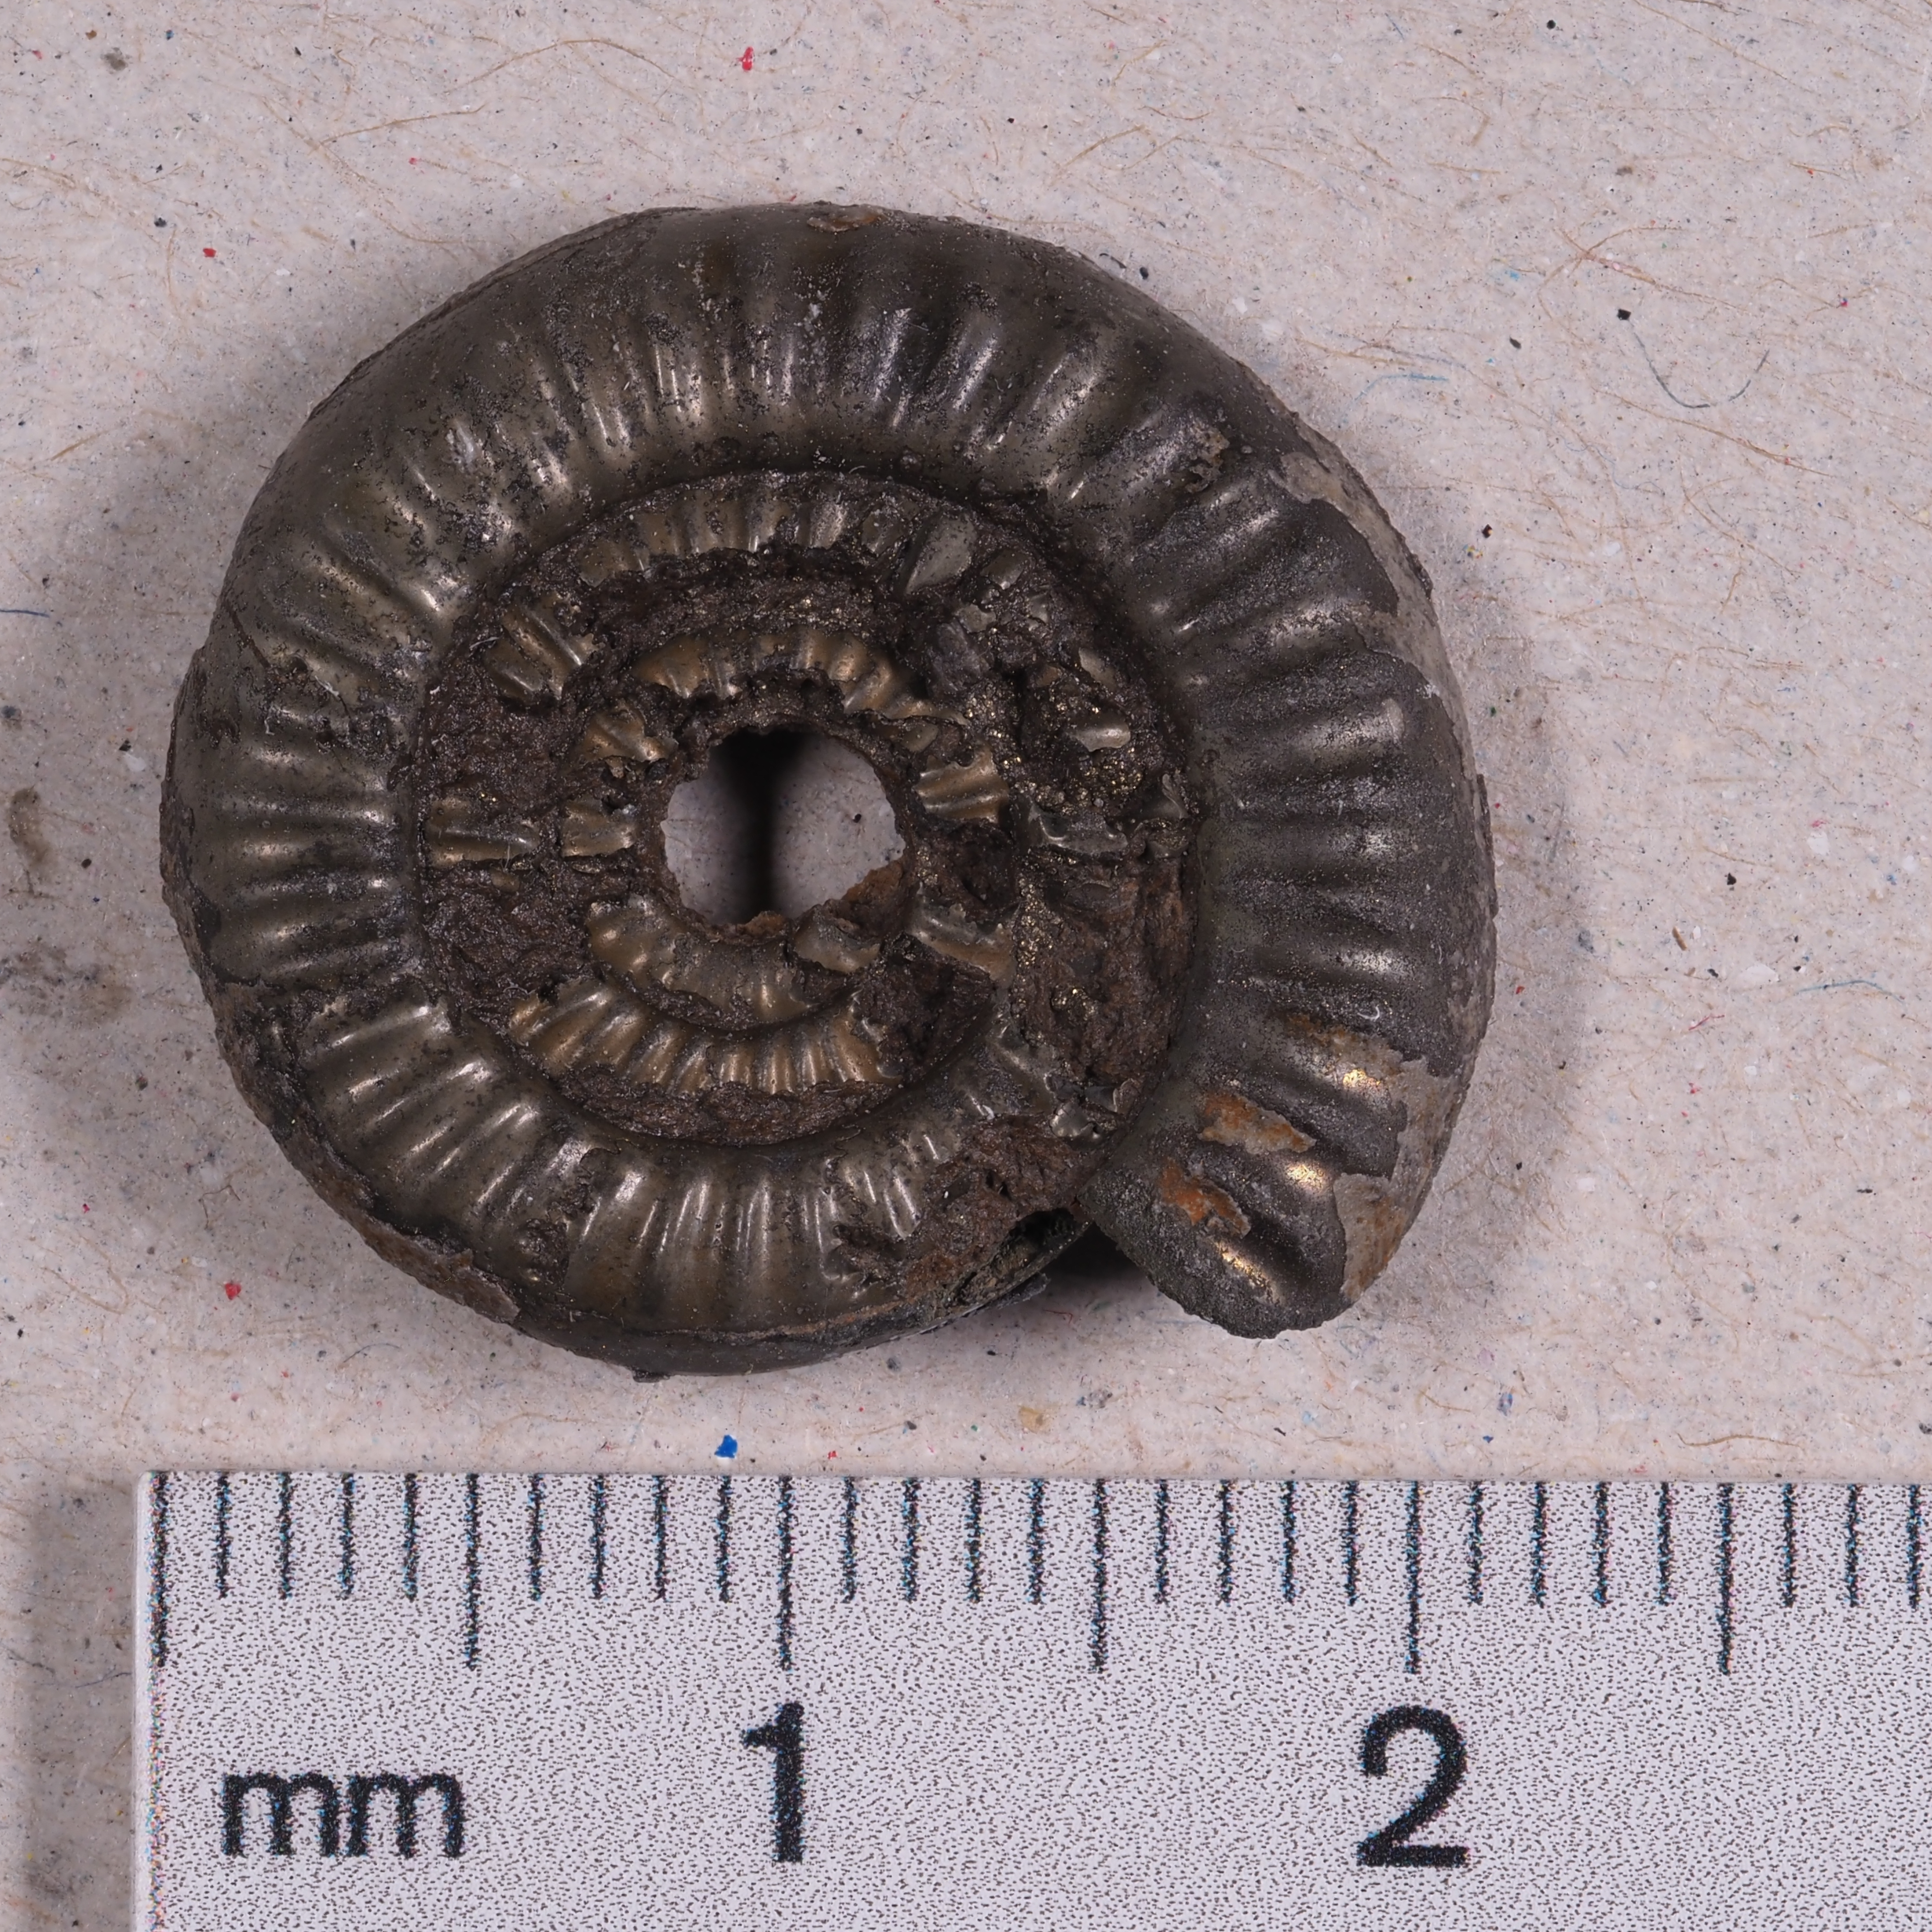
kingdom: Animalia
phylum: Mollusca
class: Cephalopoda
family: Psiloceratidae
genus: Caloceras
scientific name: Caloceras johnstoni
